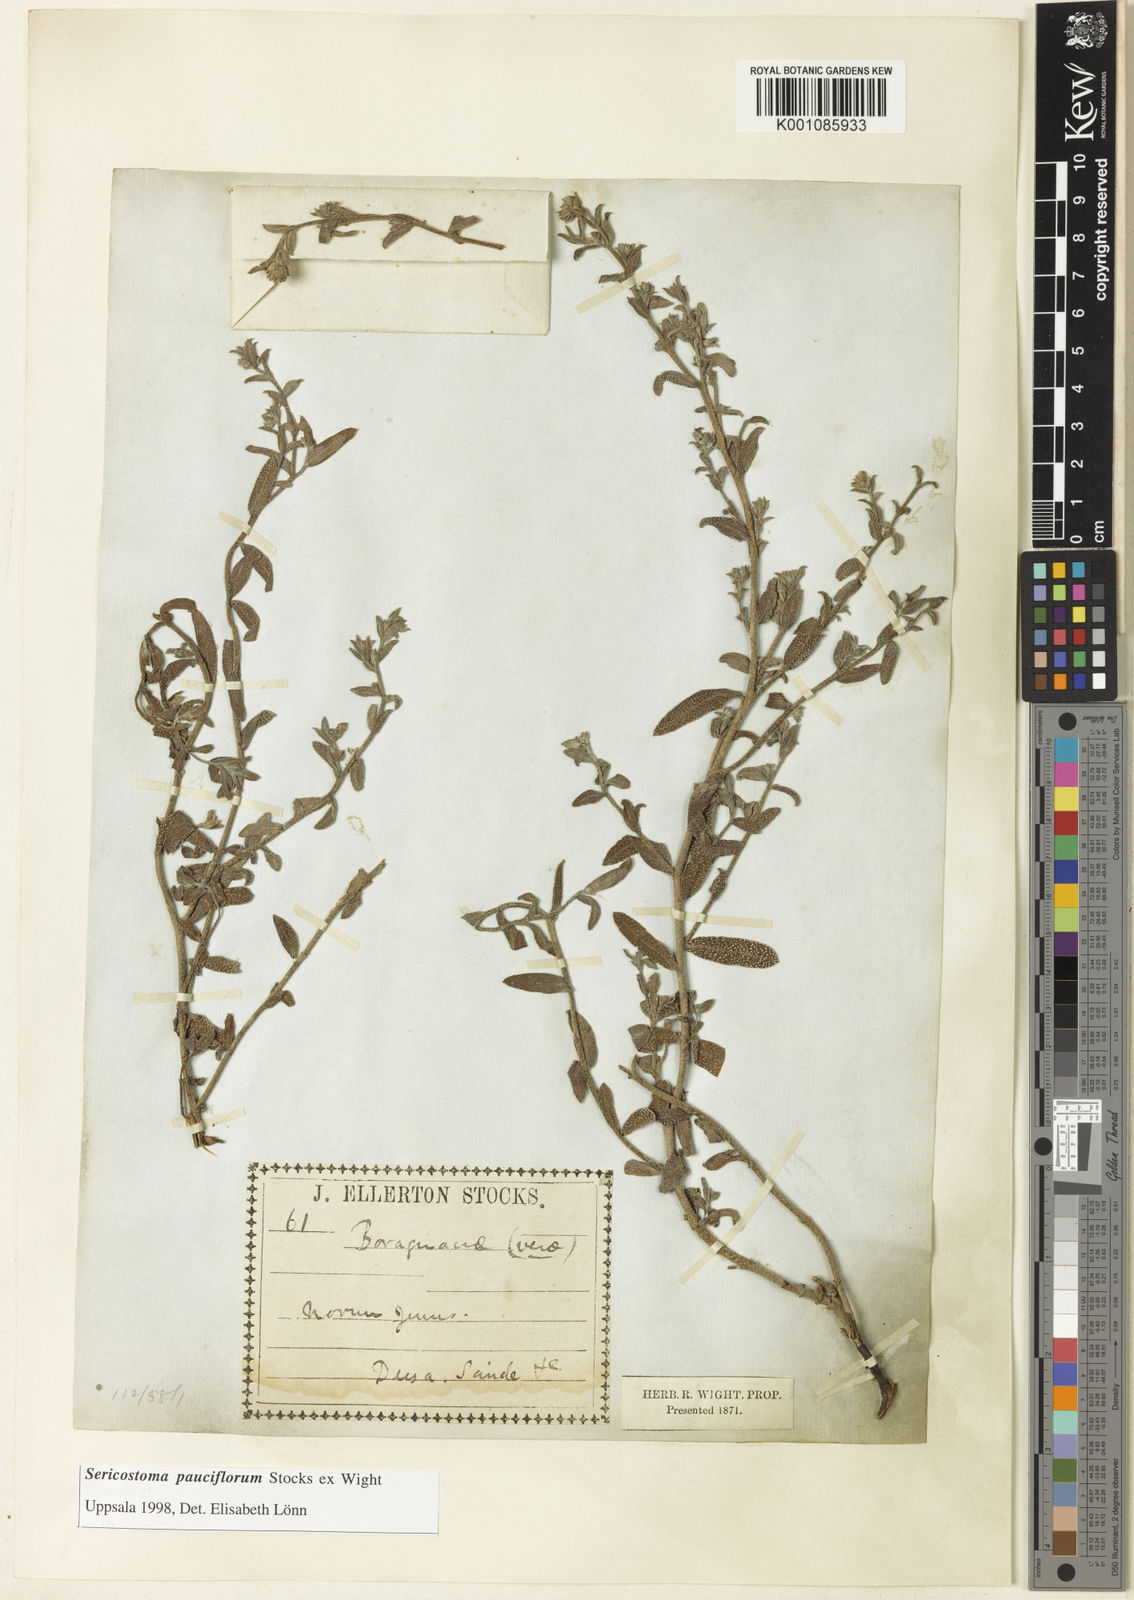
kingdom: Plantae
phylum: Tracheophyta
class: Magnoliopsida
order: Boraginales
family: Boraginaceae
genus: Echiochilon
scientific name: Echiochilon pauciflorum
